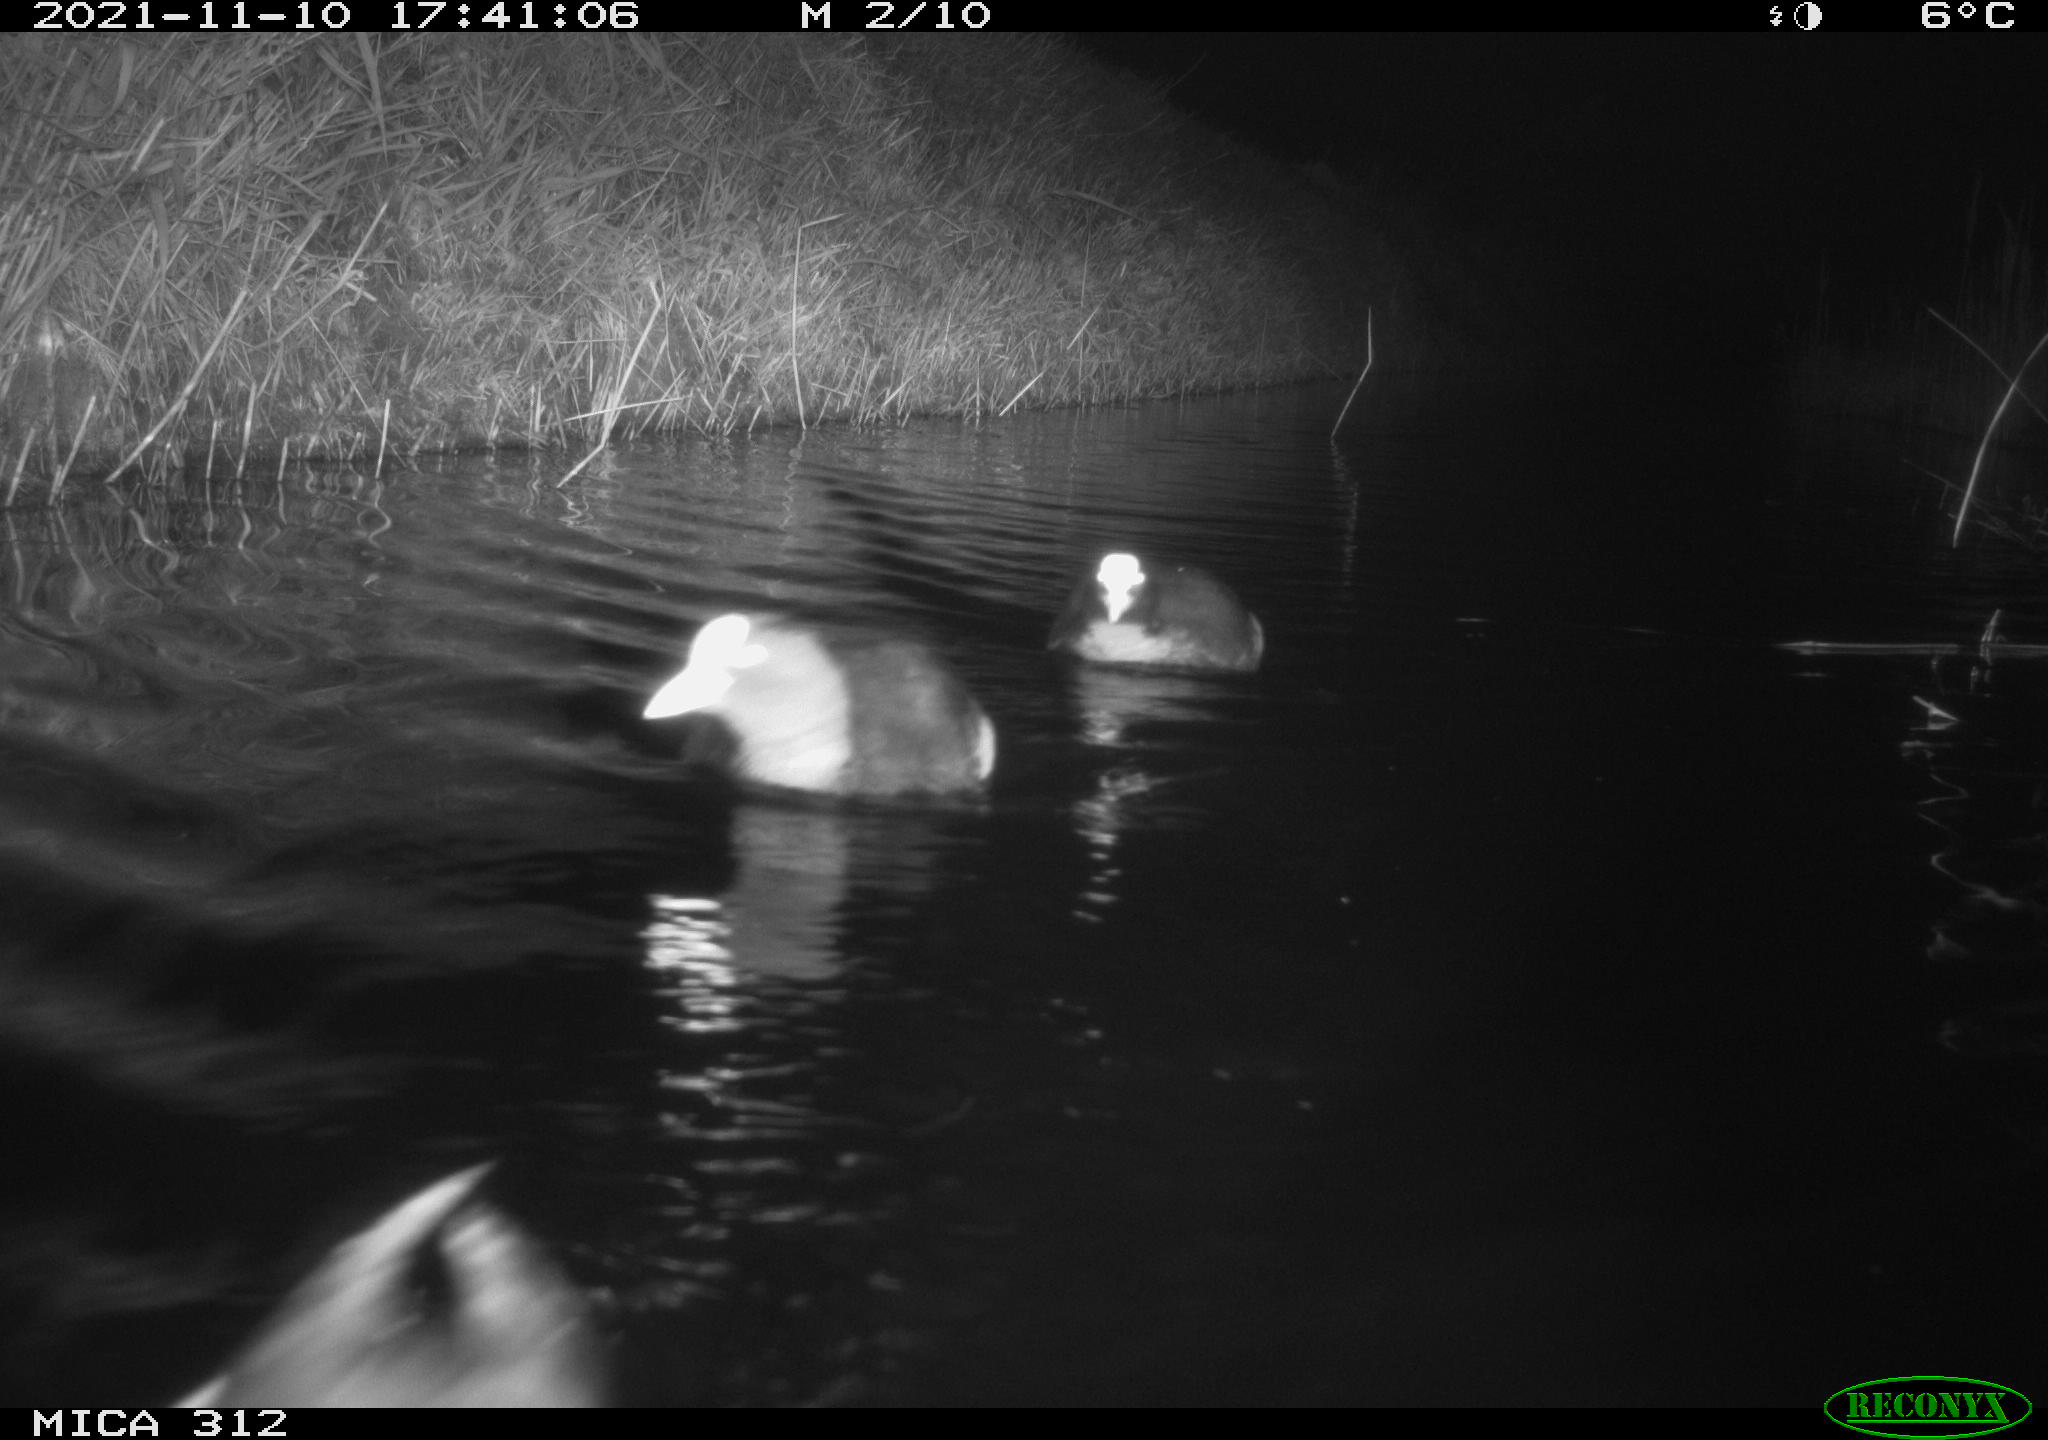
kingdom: Animalia
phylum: Chordata
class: Aves
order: Gruiformes
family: Rallidae
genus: Fulica
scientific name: Fulica atra
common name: Eurasian coot
